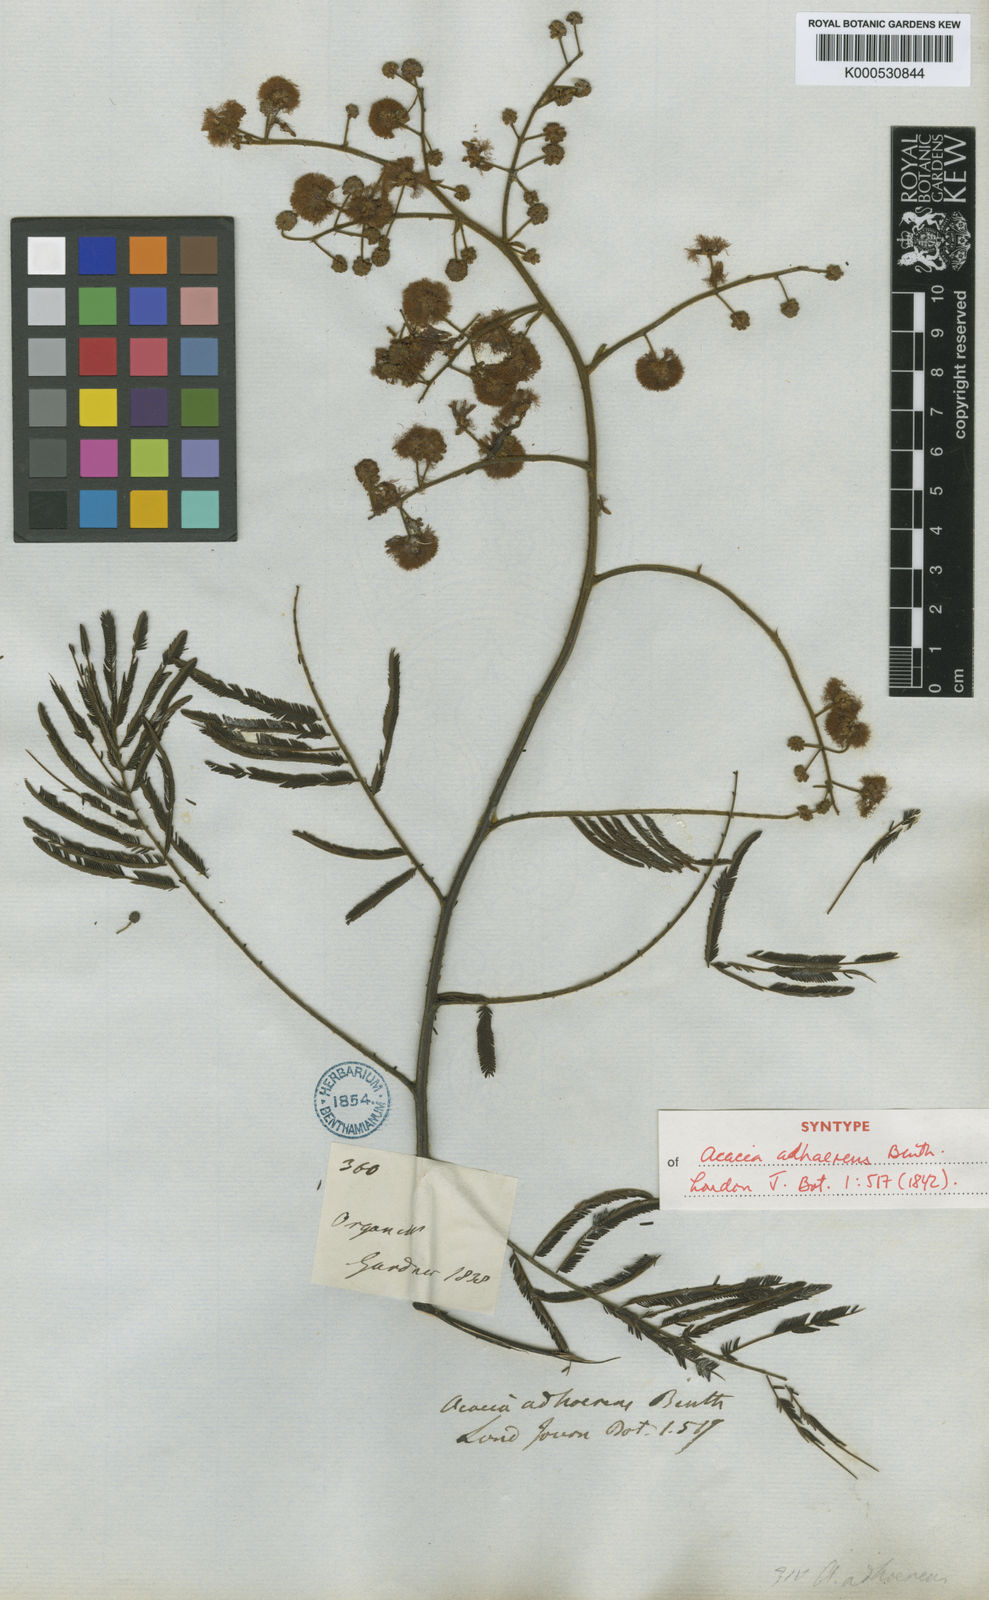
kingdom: Plantae
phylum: Tracheophyta
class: Magnoliopsida
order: Fabales
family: Fabaceae
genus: Senegalia
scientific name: Senegalia martiusiana
